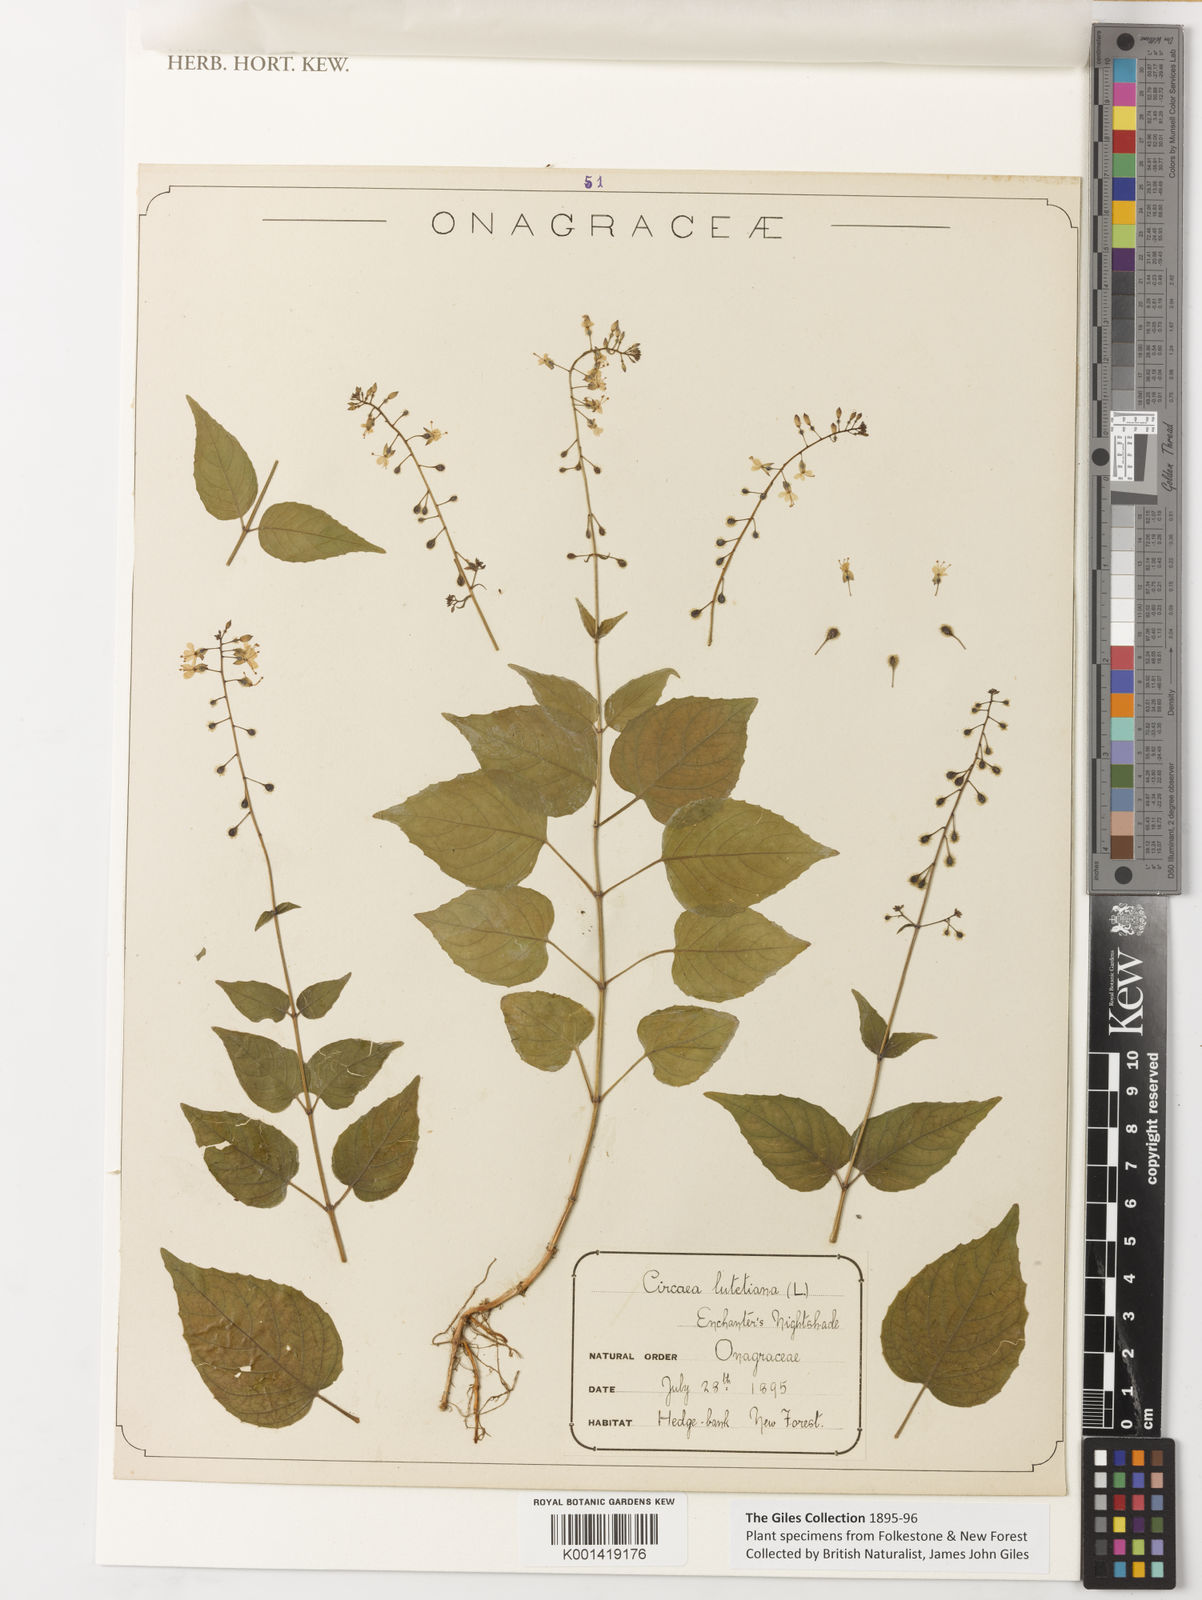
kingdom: Plantae
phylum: Tracheophyta
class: Magnoliopsida
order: Myrtales
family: Onagraceae
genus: Circaea
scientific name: Circaea lutetiana
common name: Enchanter's-nightshade
